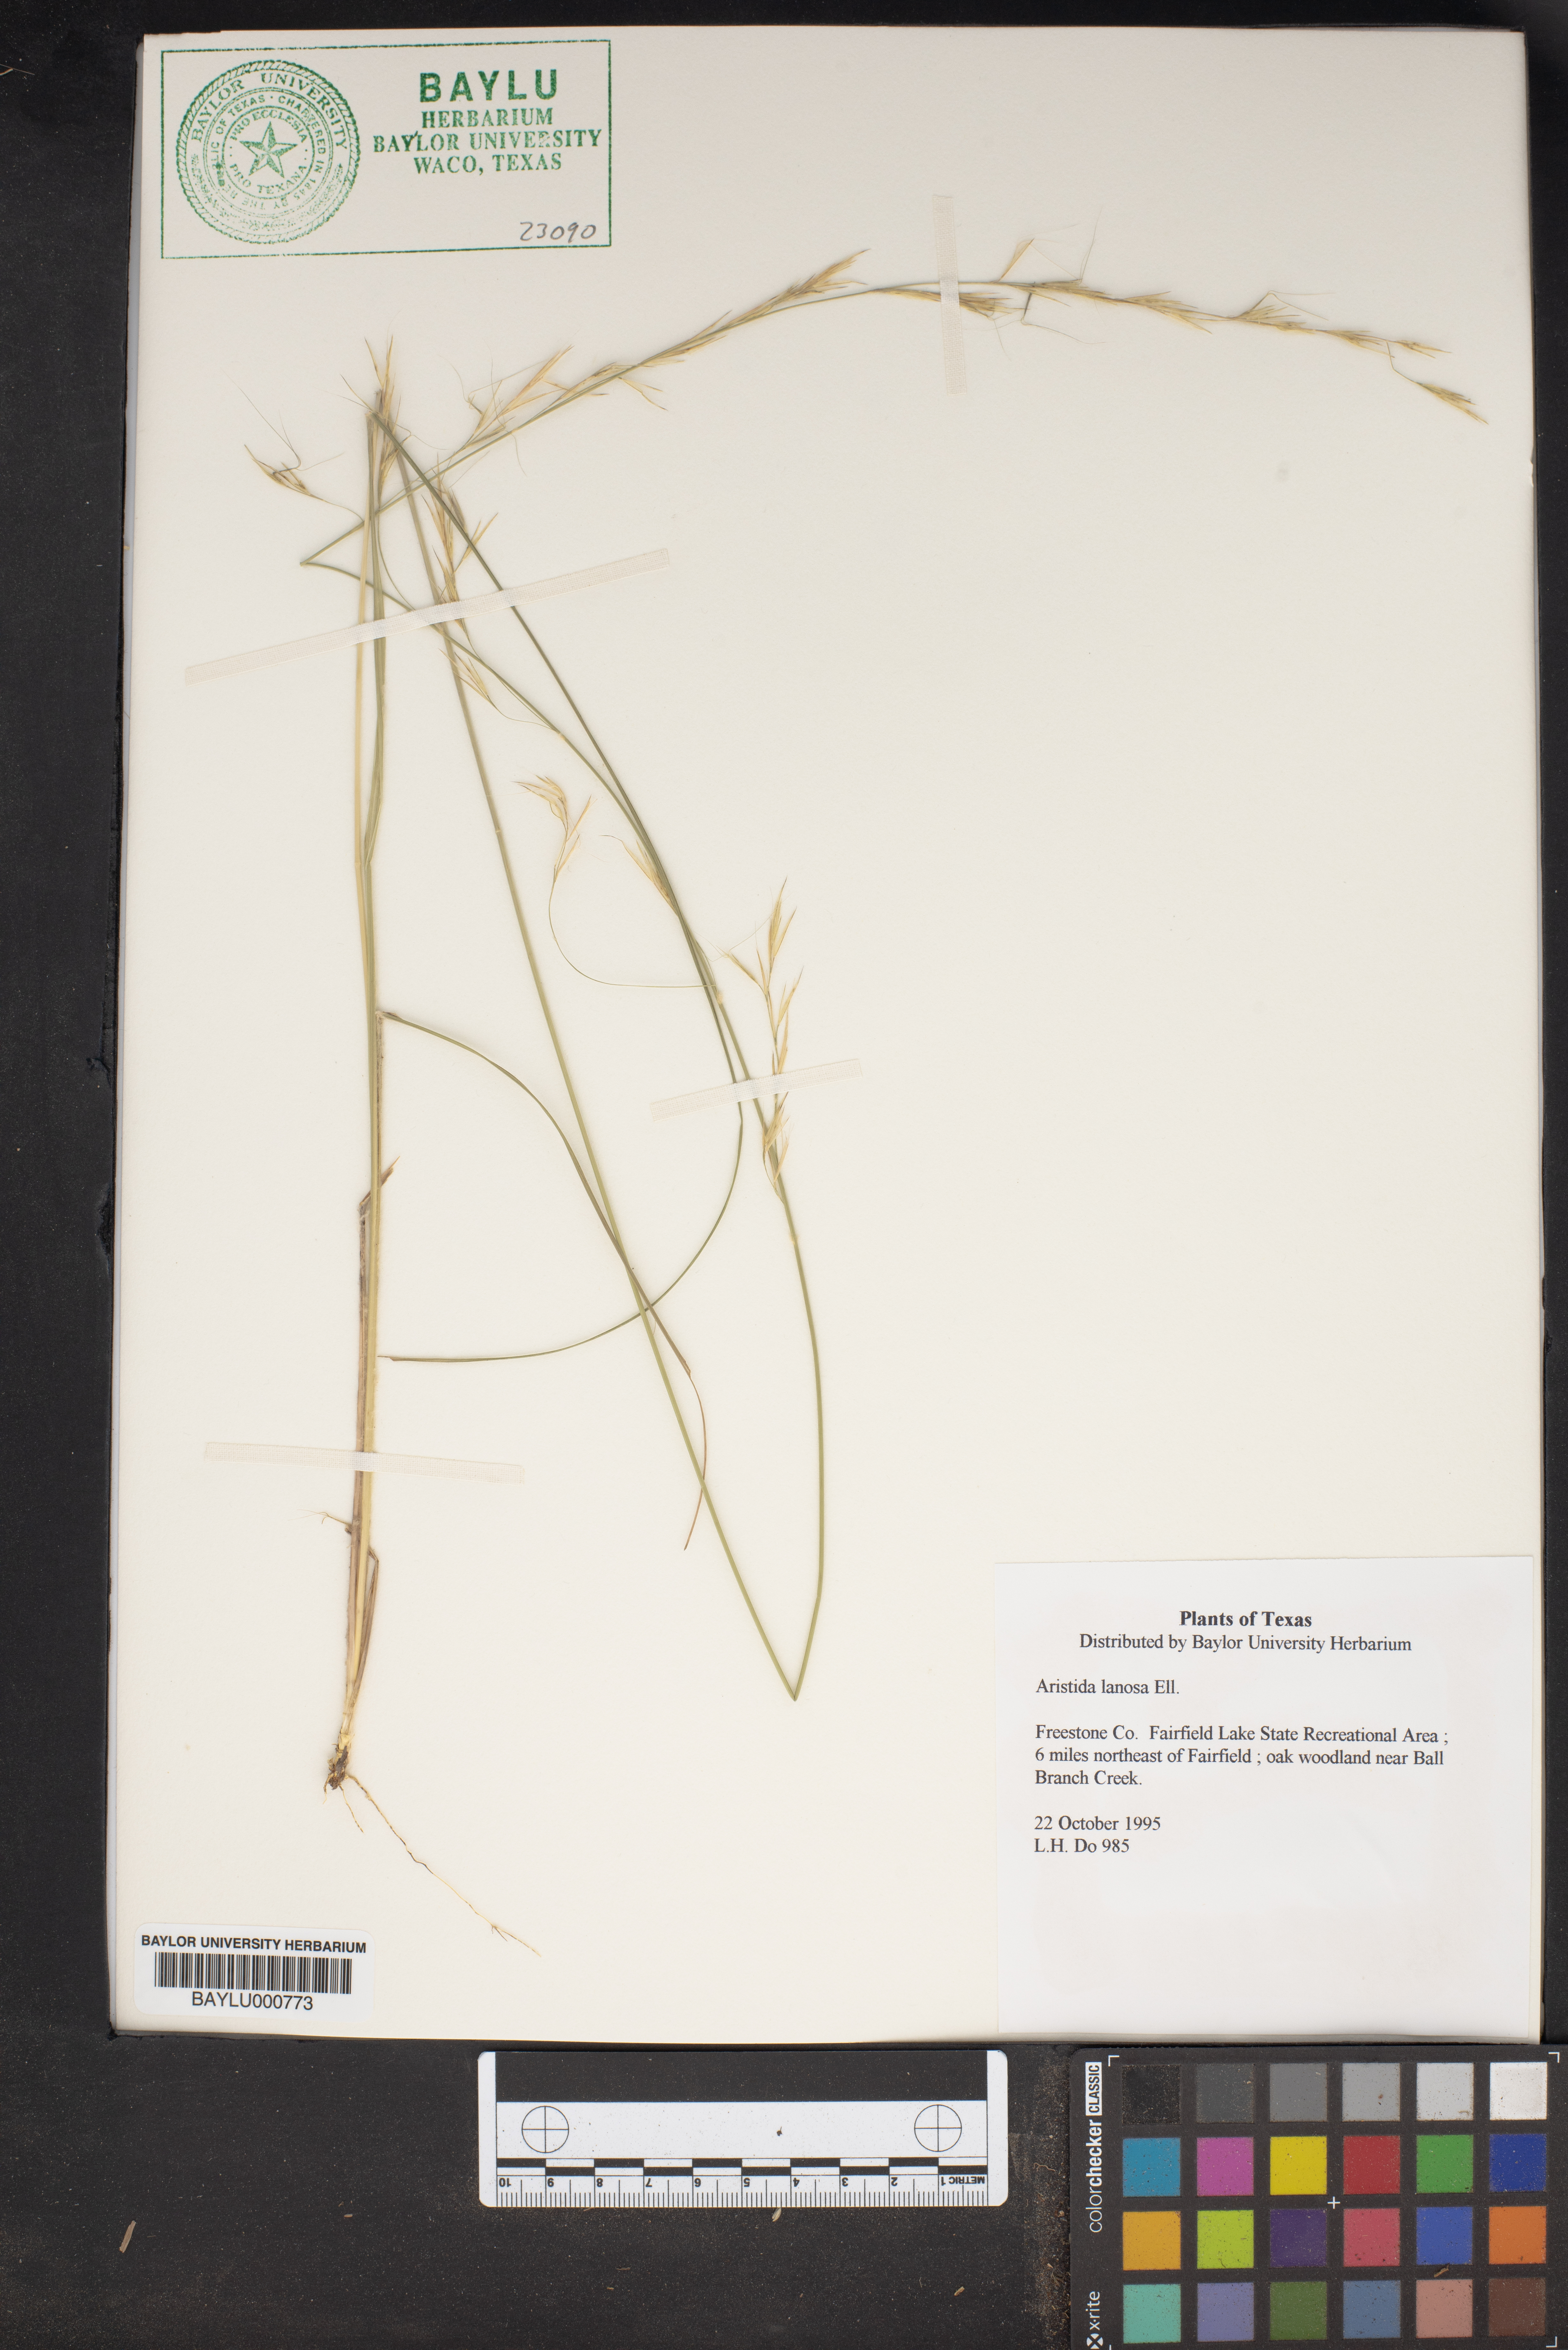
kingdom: Plantae
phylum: Tracheophyta
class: Liliopsida
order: Poales
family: Poaceae
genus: Aristida
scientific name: Aristida lanosa
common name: Woolly three-awn
